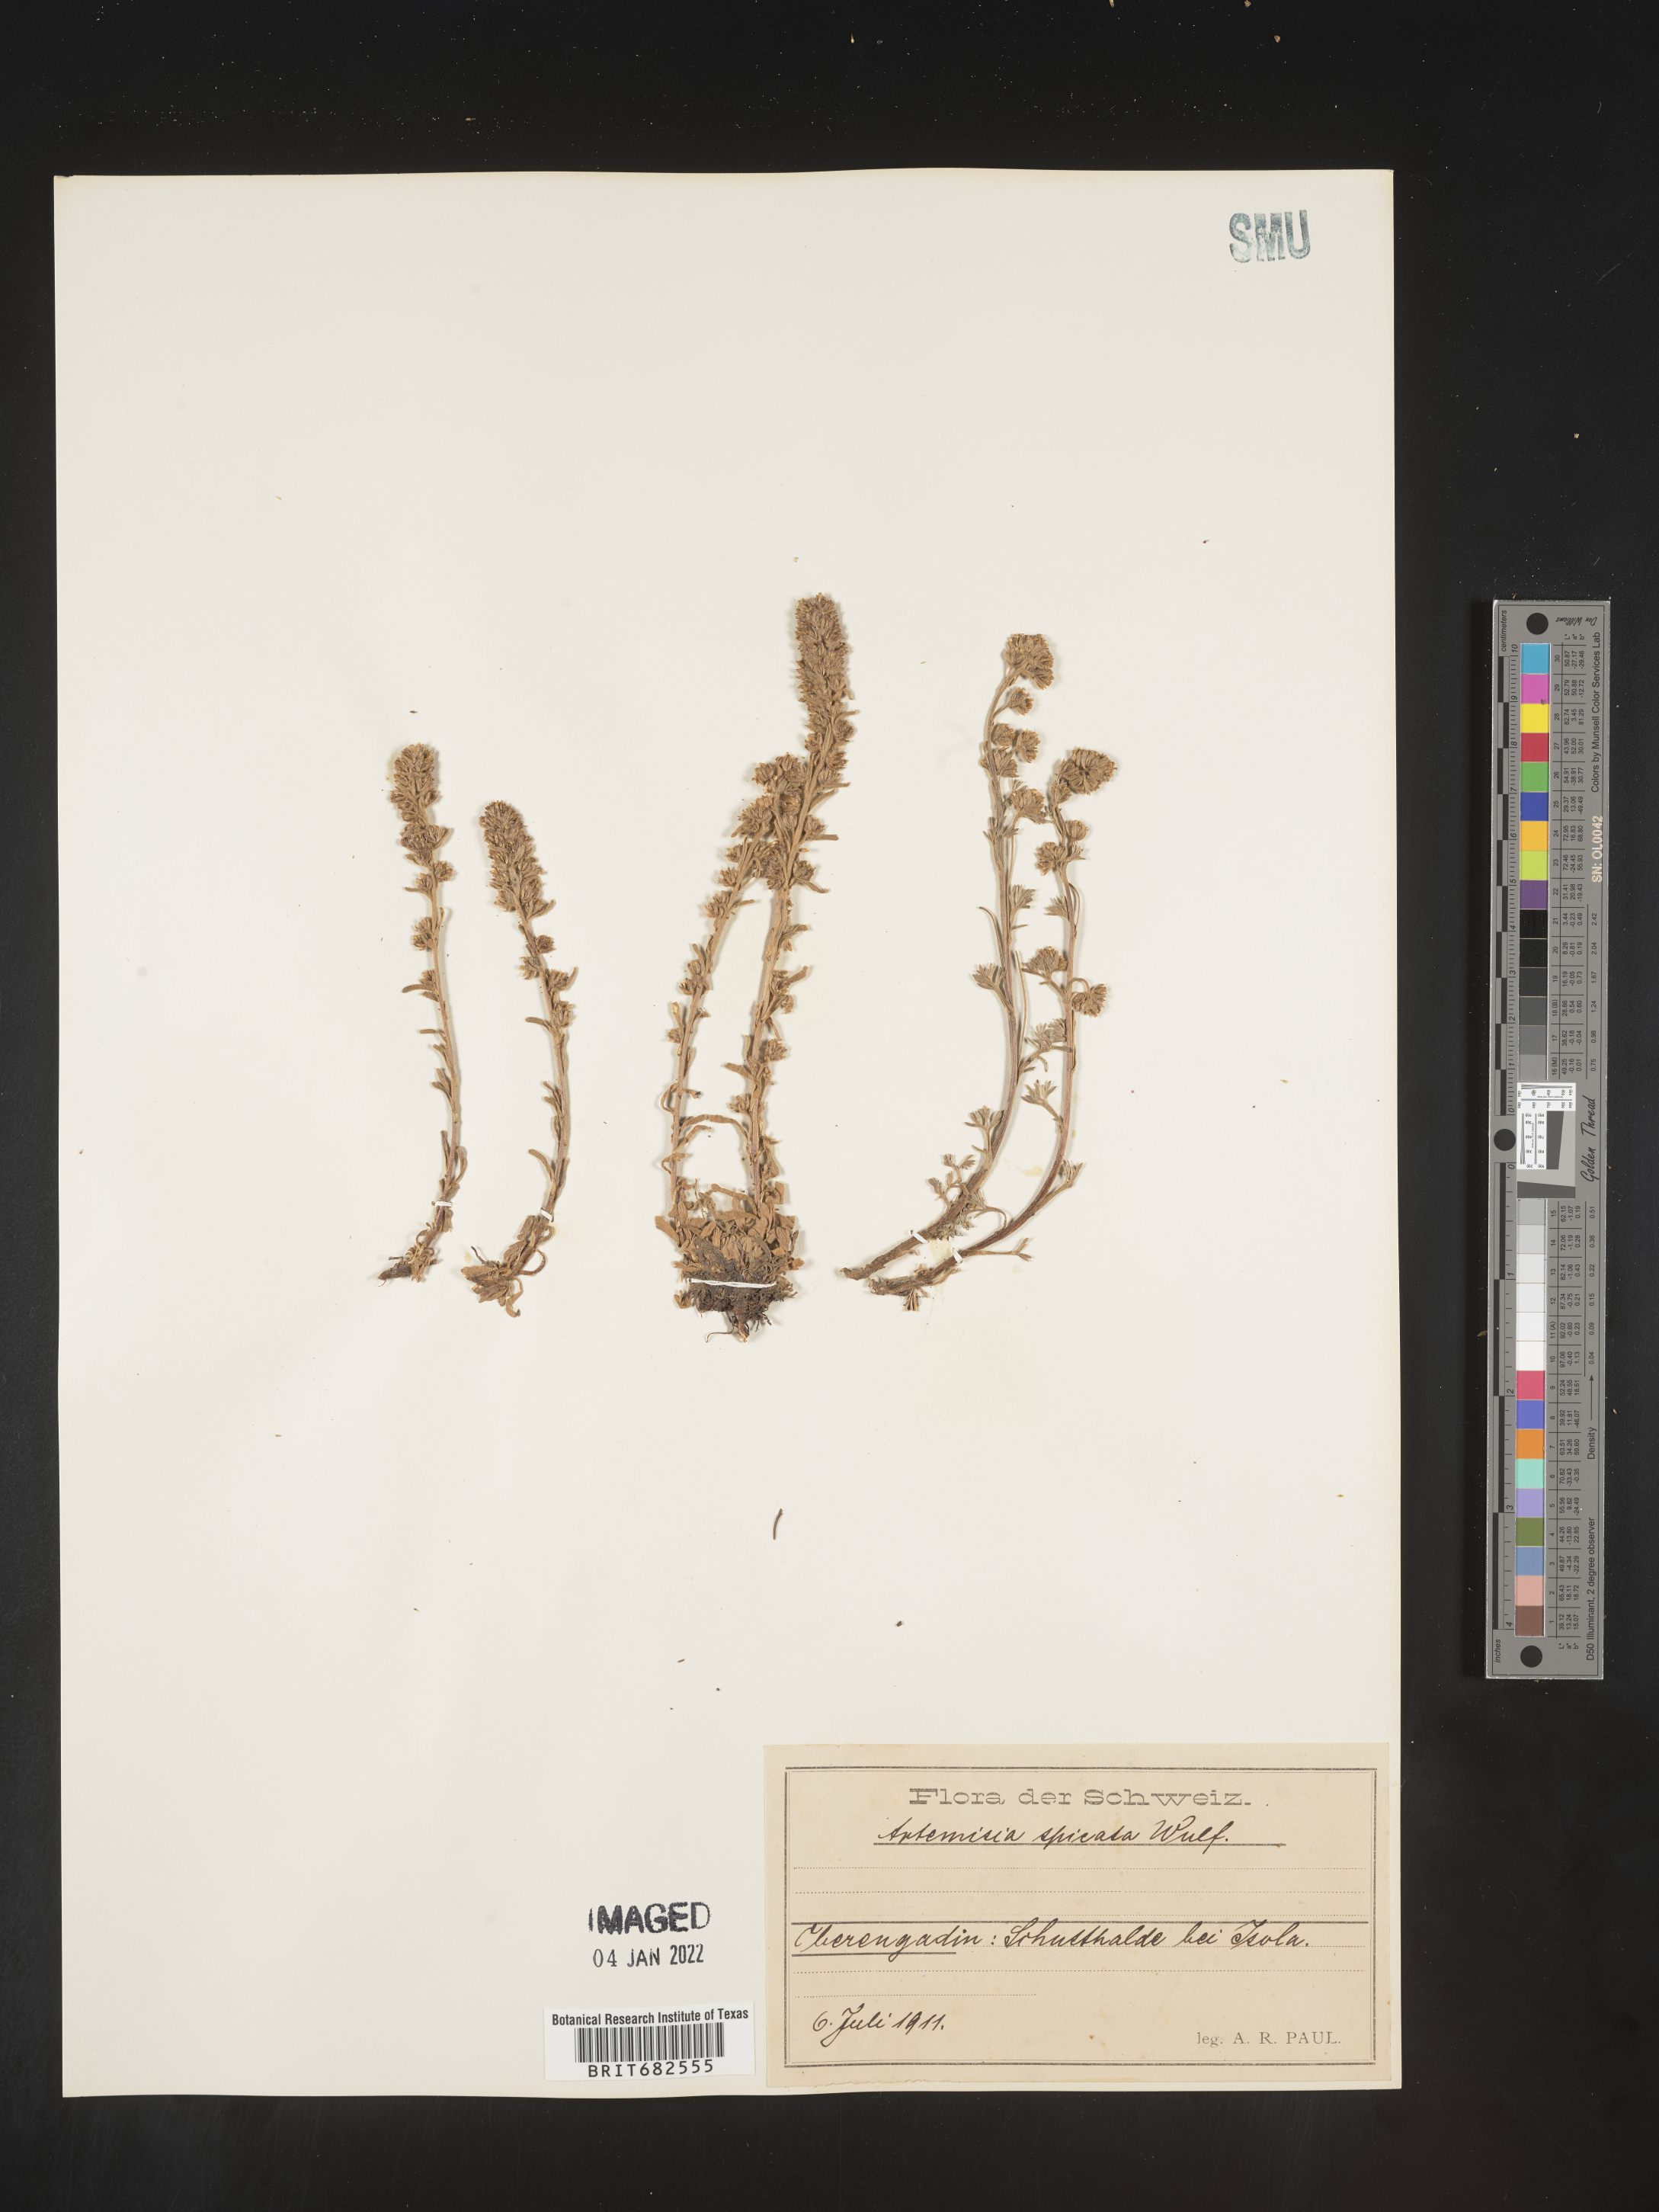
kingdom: Plantae
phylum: Tracheophyta
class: Magnoliopsida
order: Asterales
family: Asteraceae
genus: Artemisia
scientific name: Artemisia
